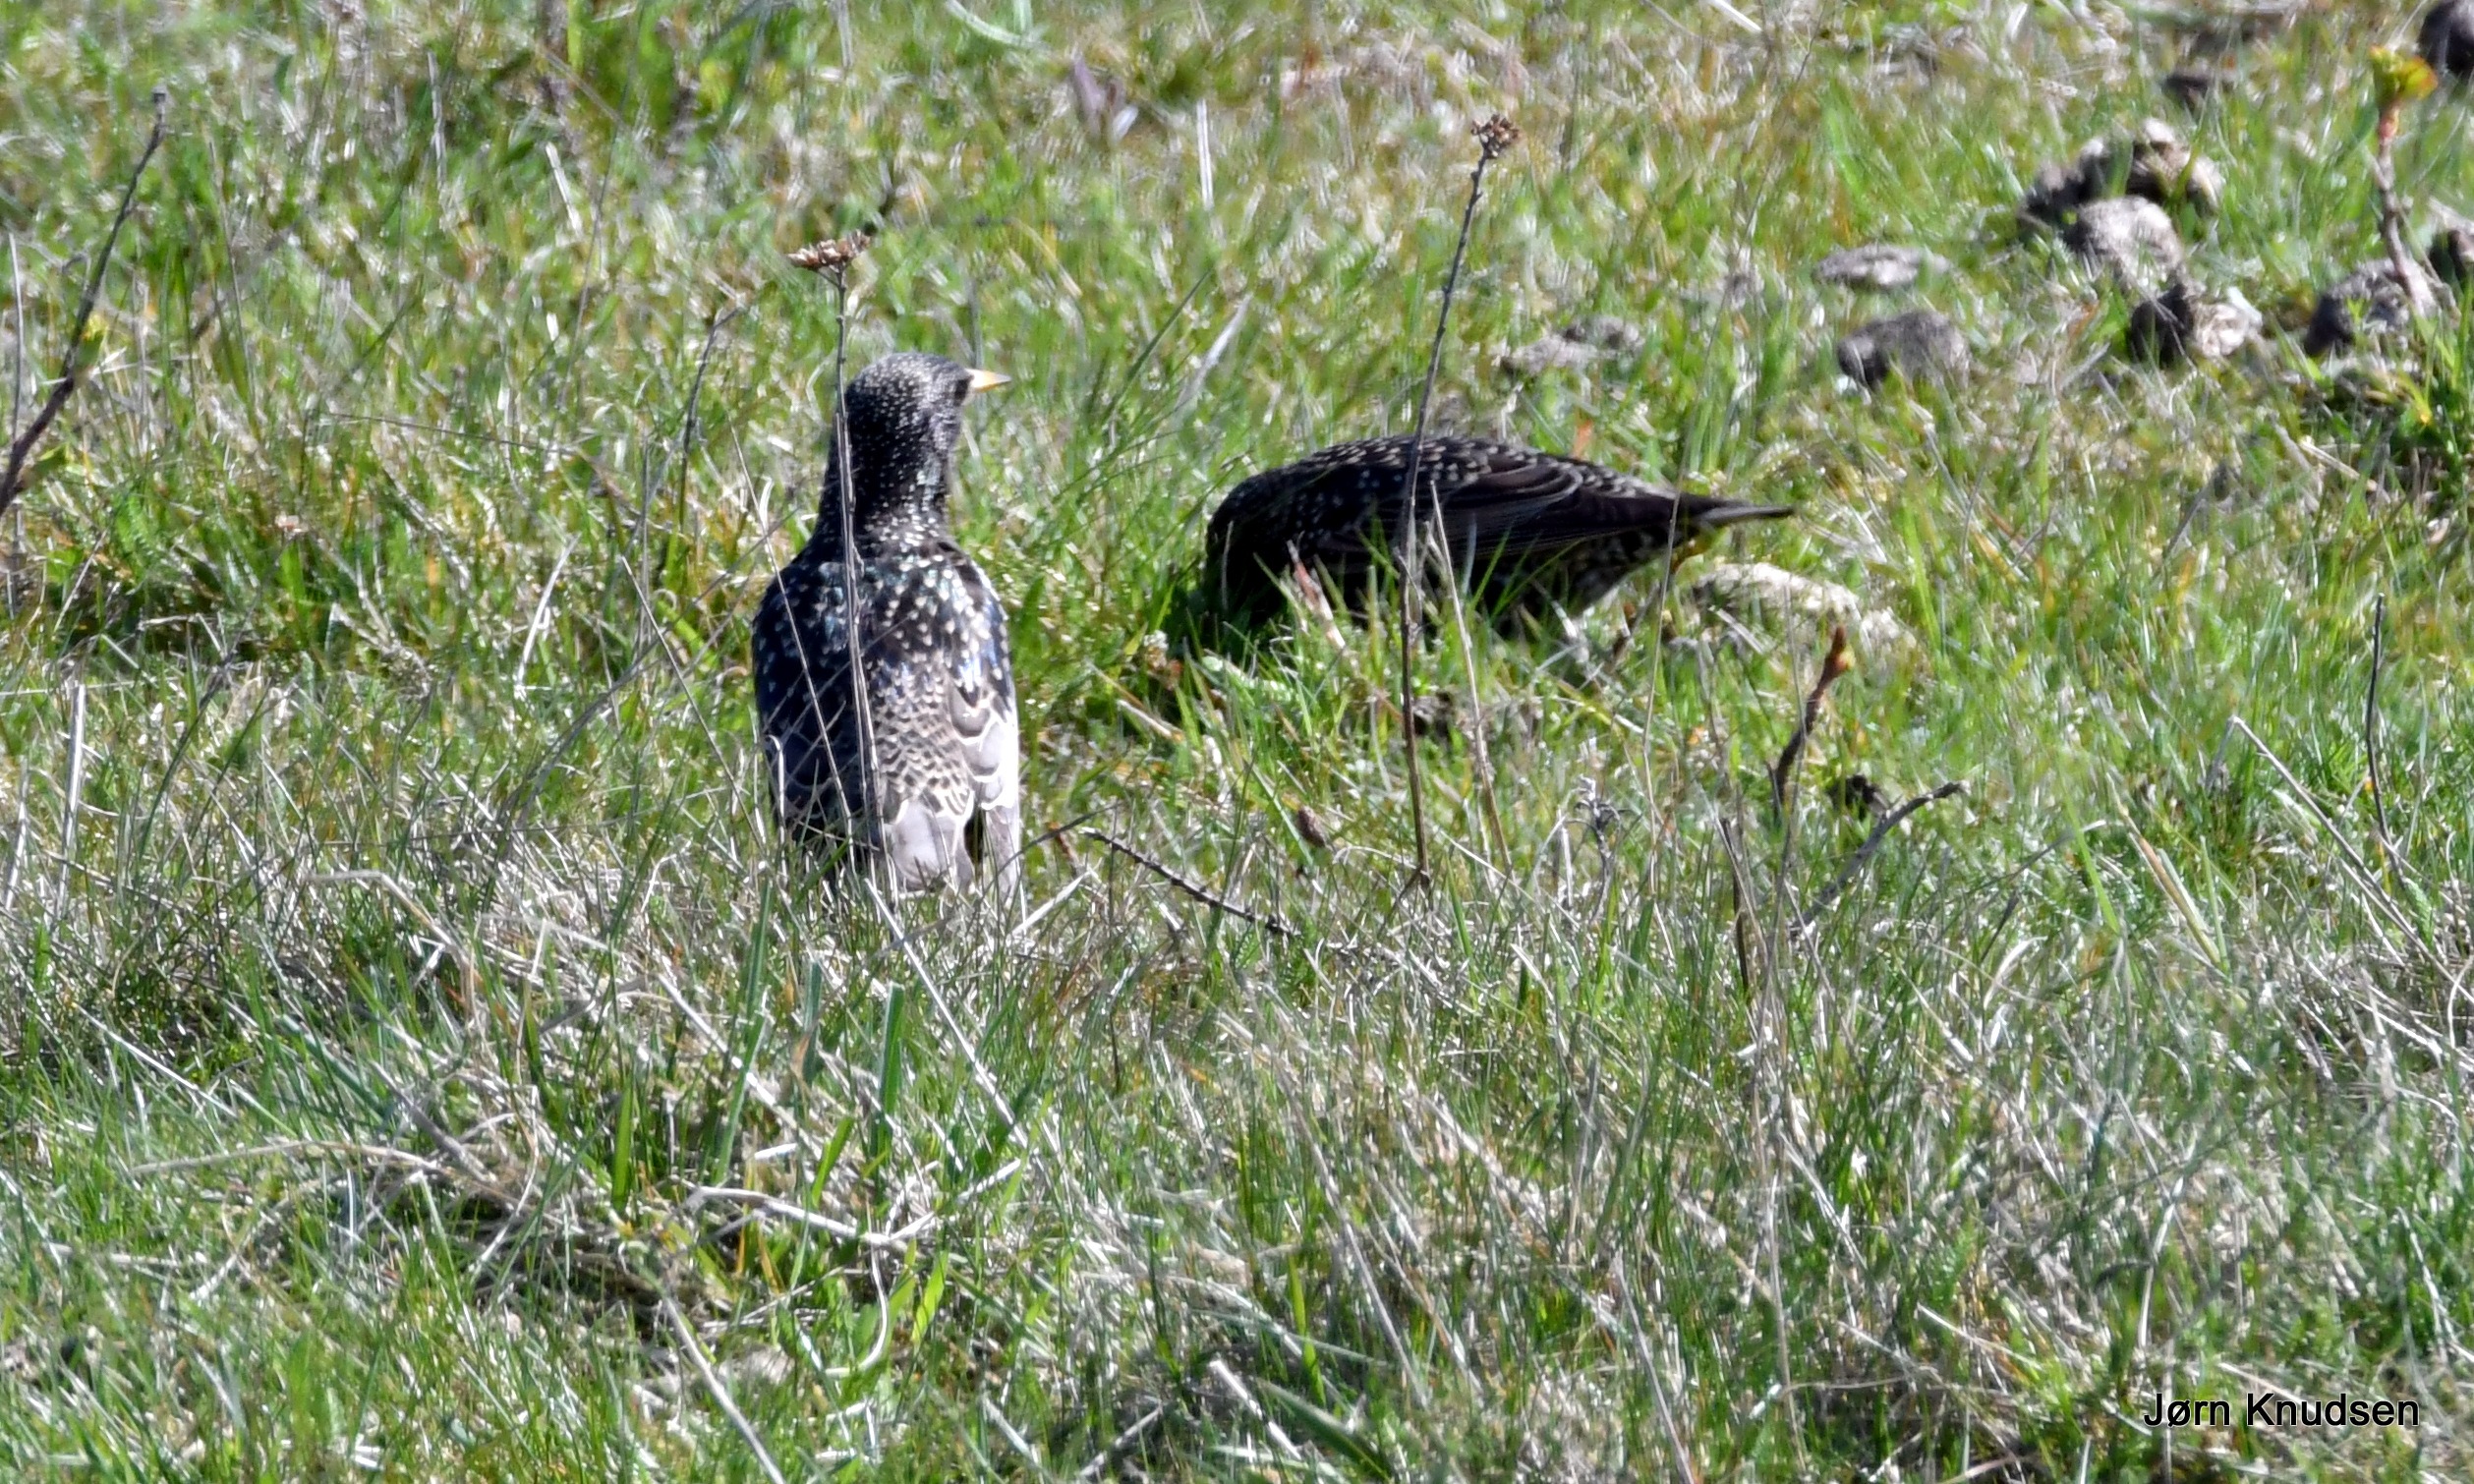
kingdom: Animalia
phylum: Chordata
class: Aves
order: Passeriformes
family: Sturnidae
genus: Sturnus
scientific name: Sturnus vulgaris
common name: Stær
